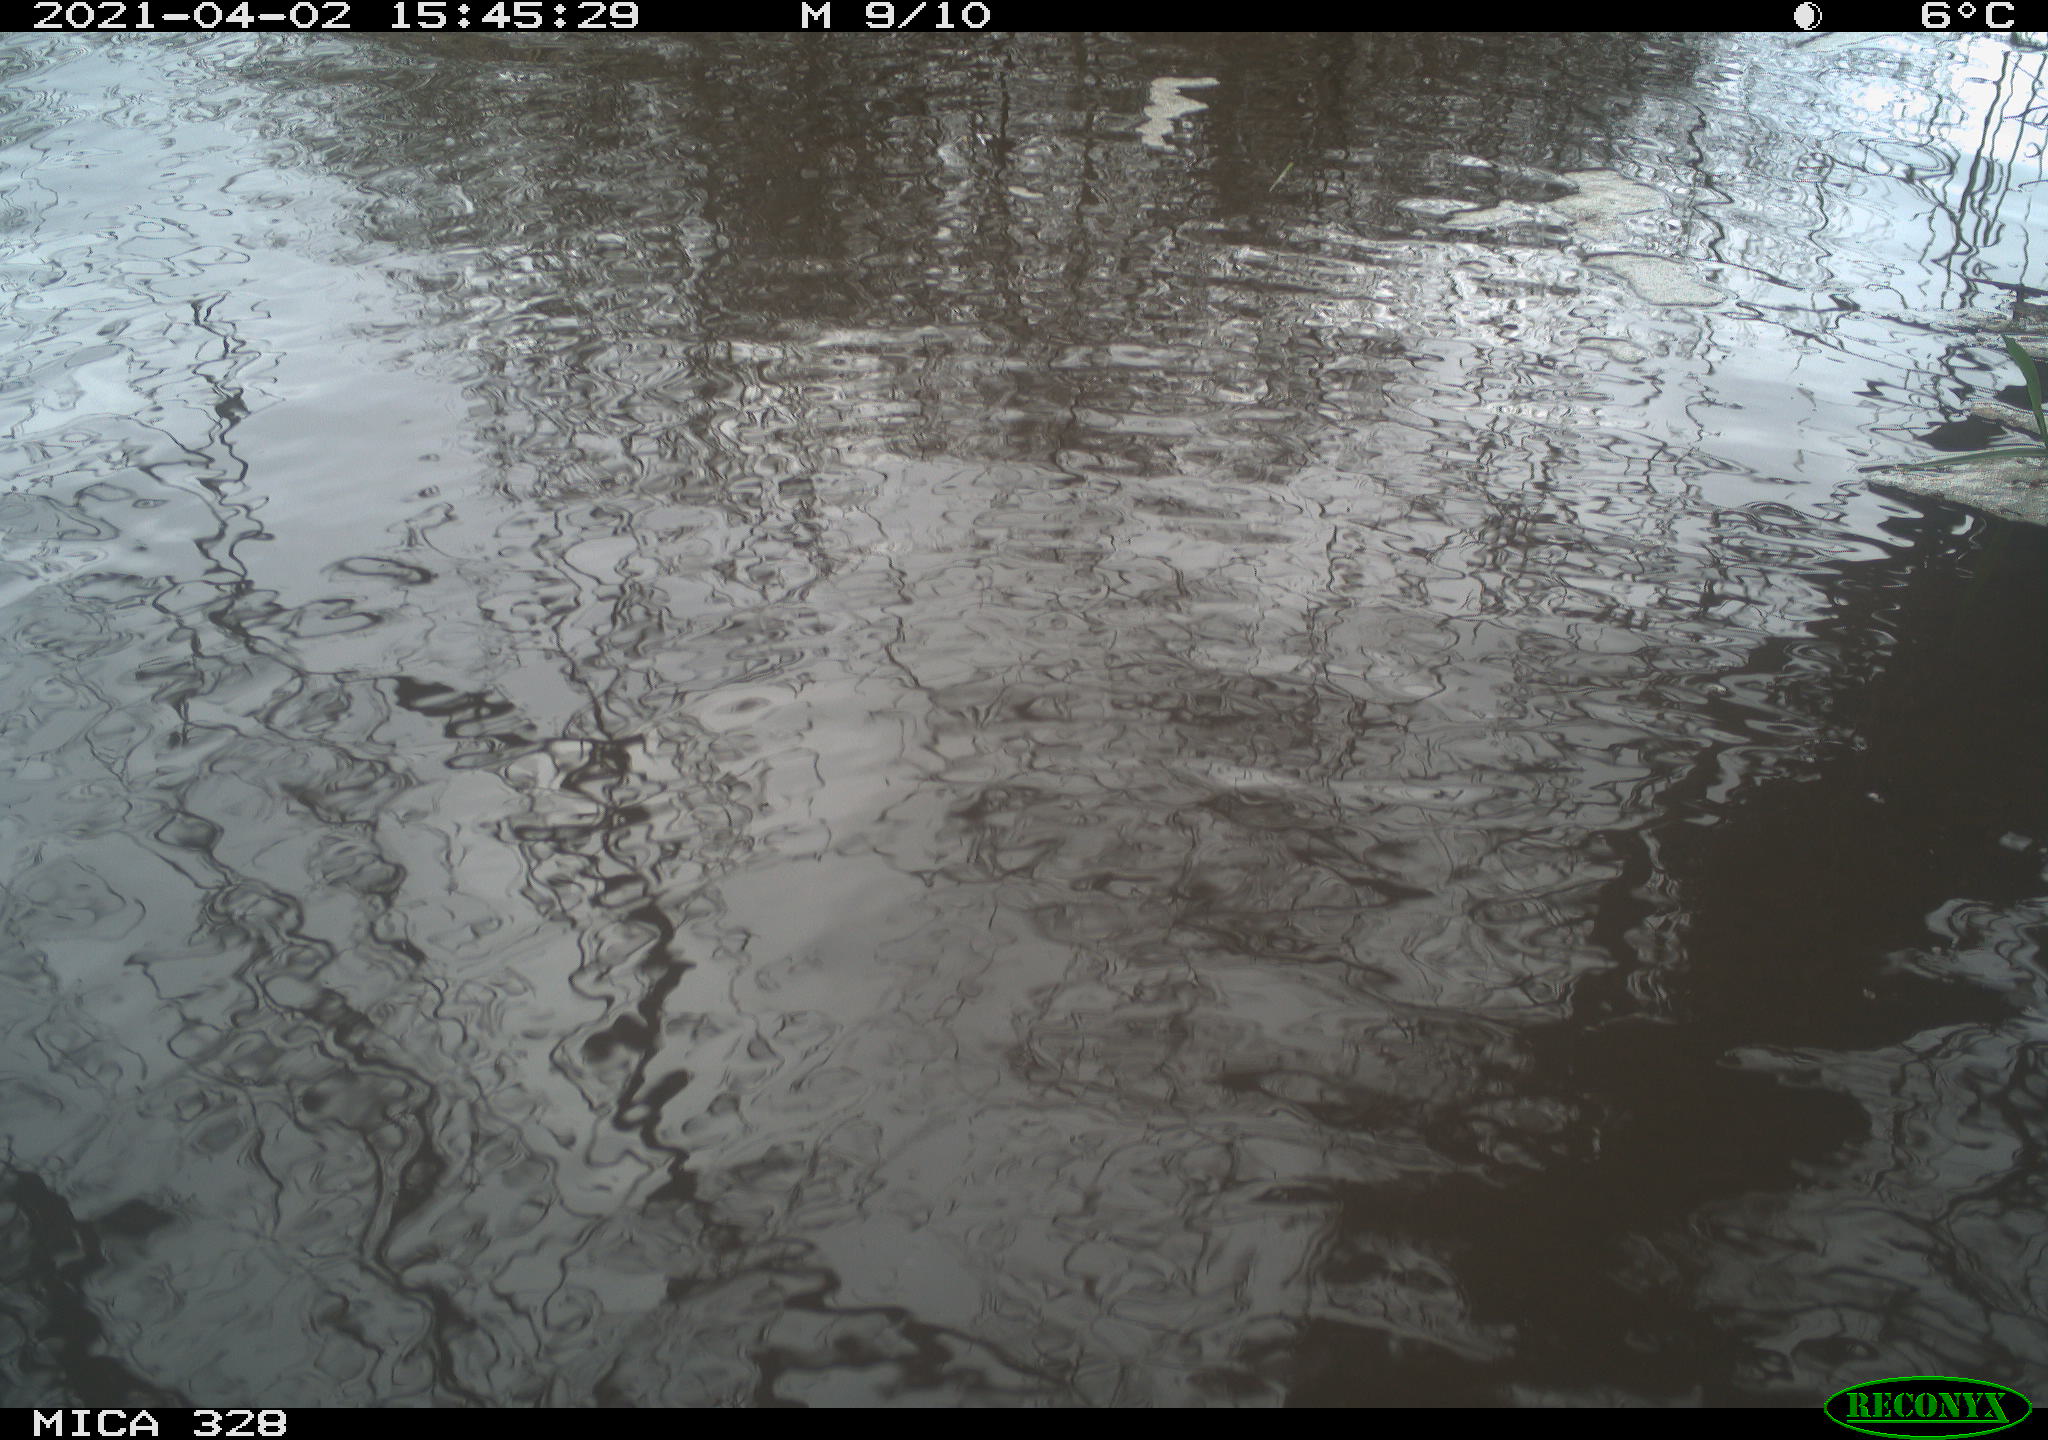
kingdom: Animalia
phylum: Chordata
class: Mammalia
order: Rodentia
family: Cricetidae
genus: Ondatra
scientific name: Ondatra zibethicus
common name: Muskrat
